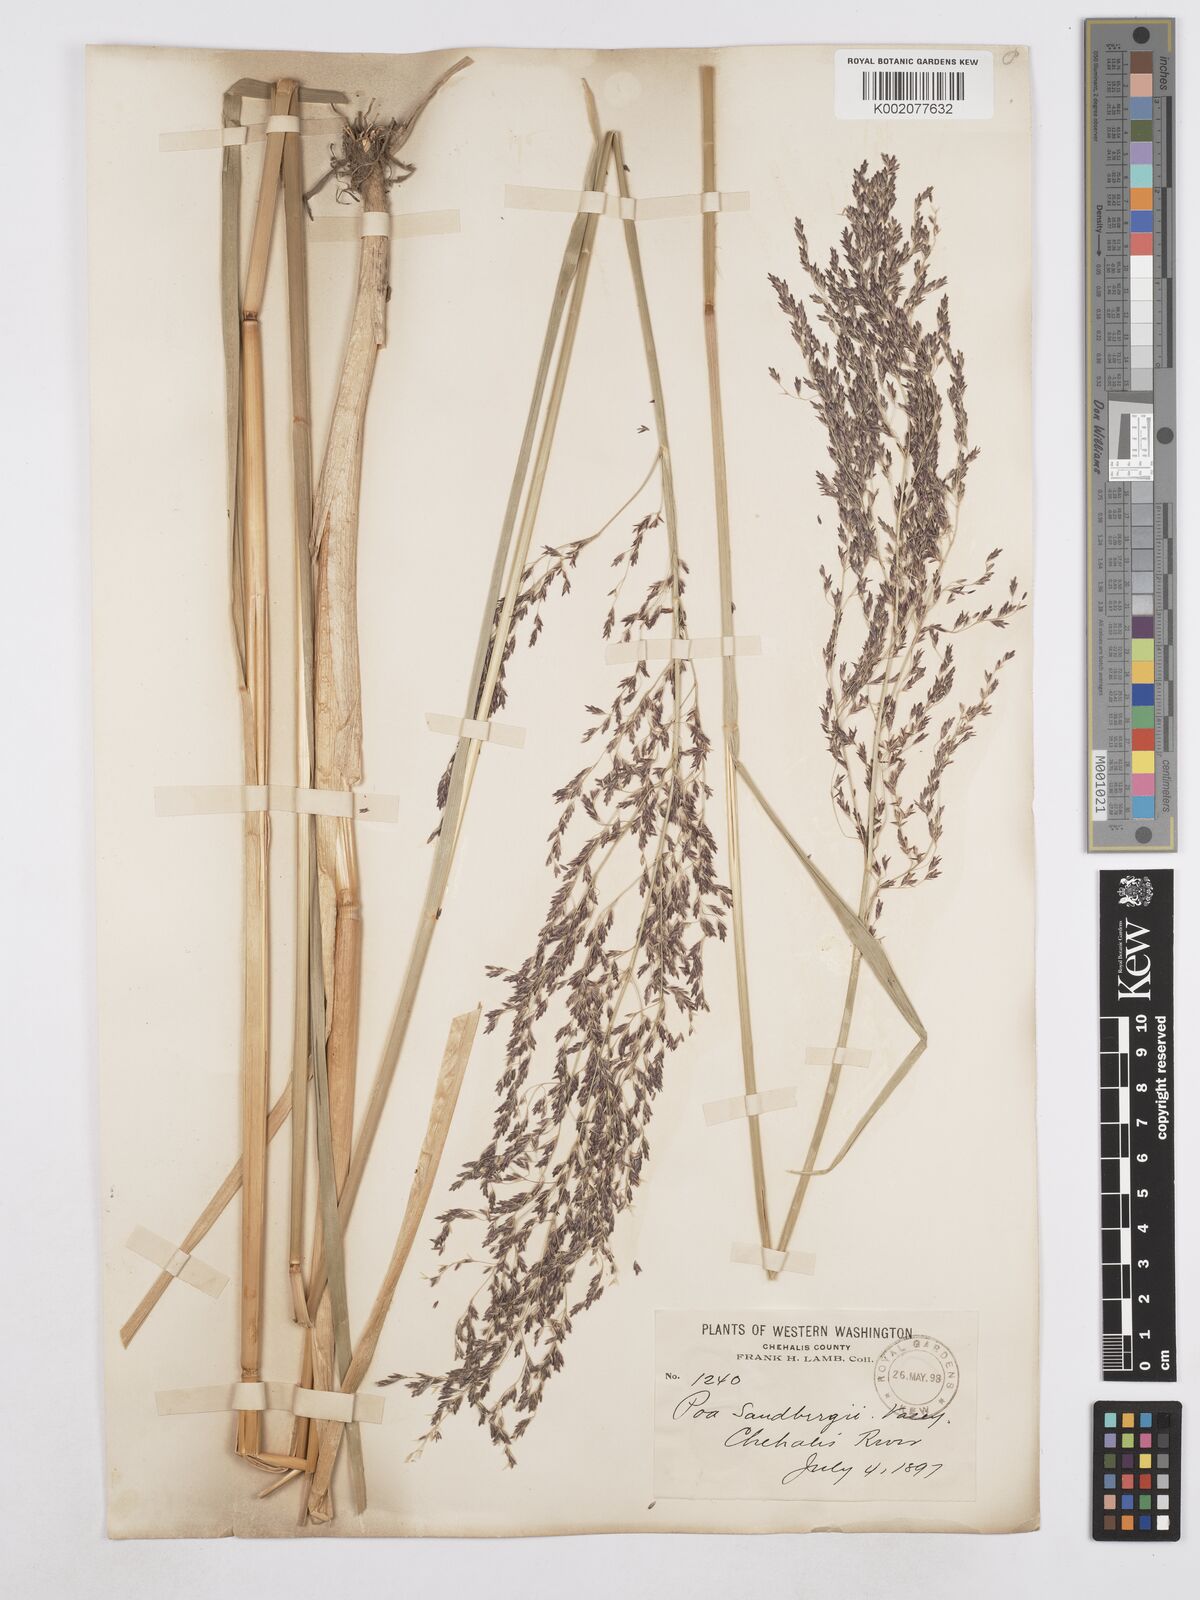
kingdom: Plantae
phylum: Tracheophyta
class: Liliopsida
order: Poales
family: Poaceae
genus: Poa
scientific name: Poa secunda
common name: Sandberg bluegrass
